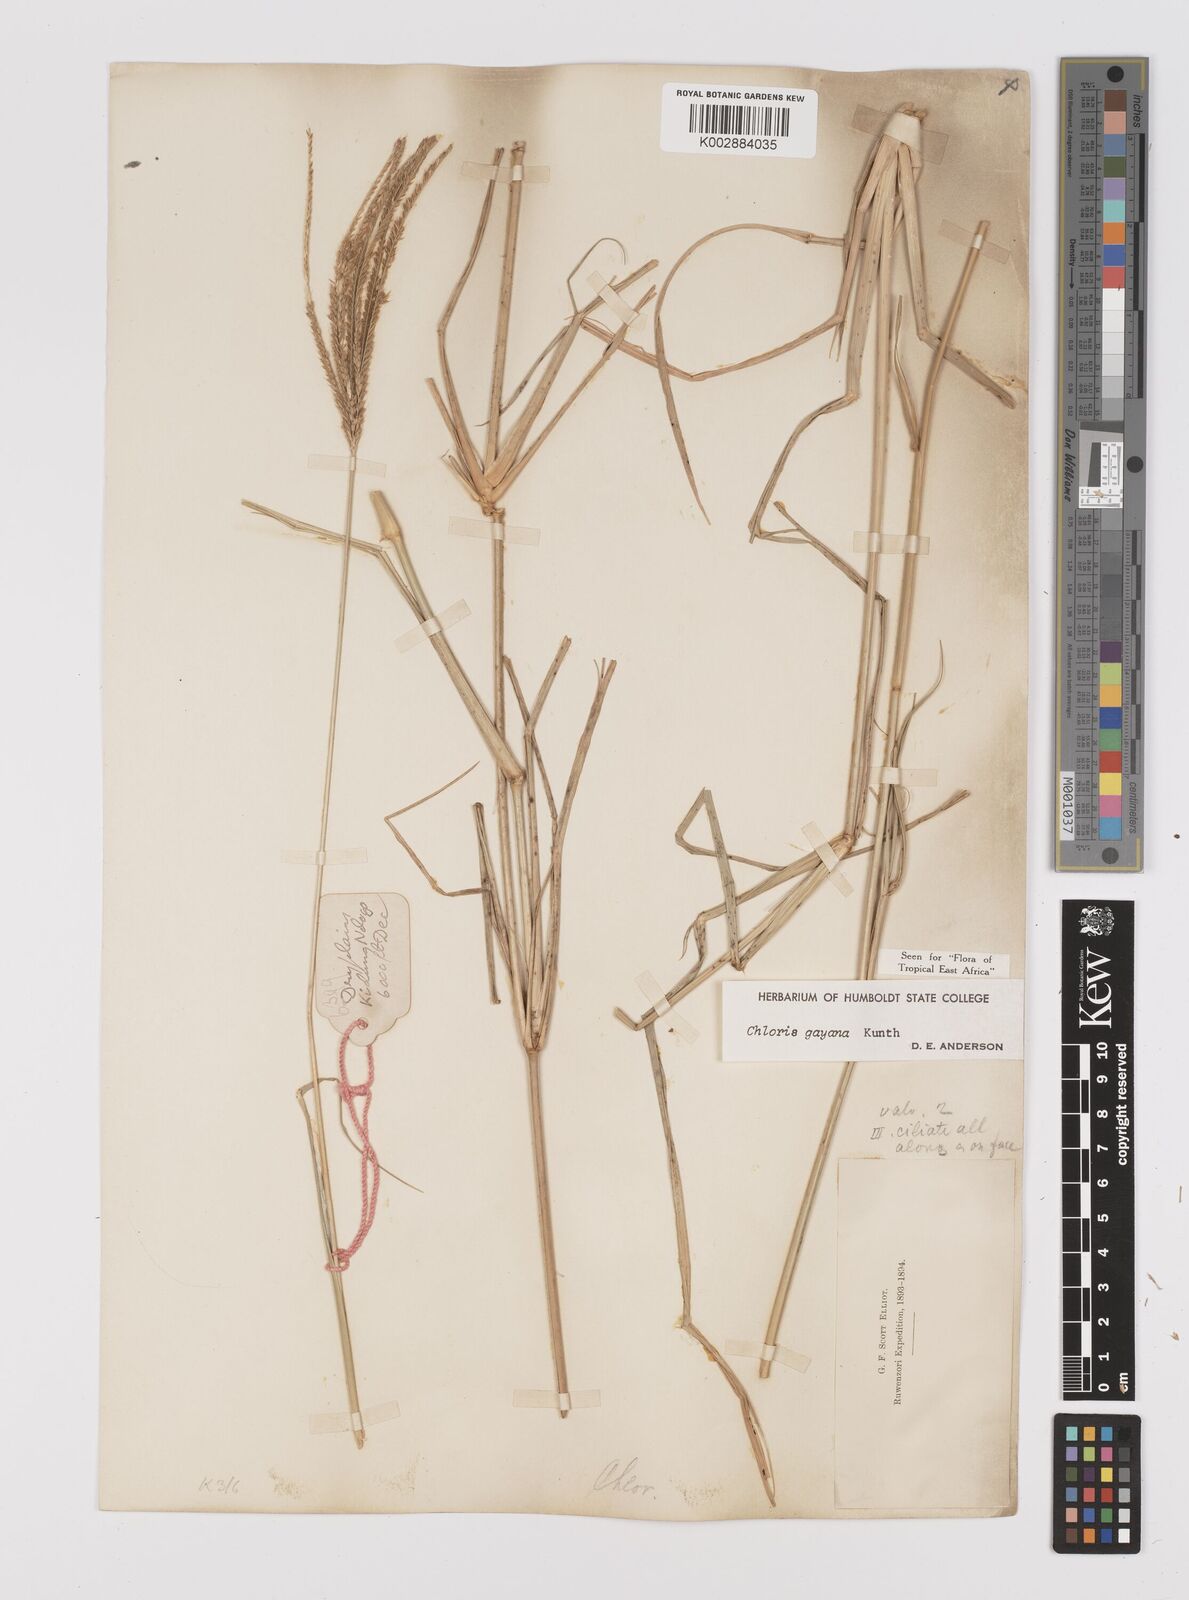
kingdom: Plantae
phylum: Tracheophyta
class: Liliopsida
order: Poales
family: Poaceae
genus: Chloris
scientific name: Chloris gayana
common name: Rhodes grass
